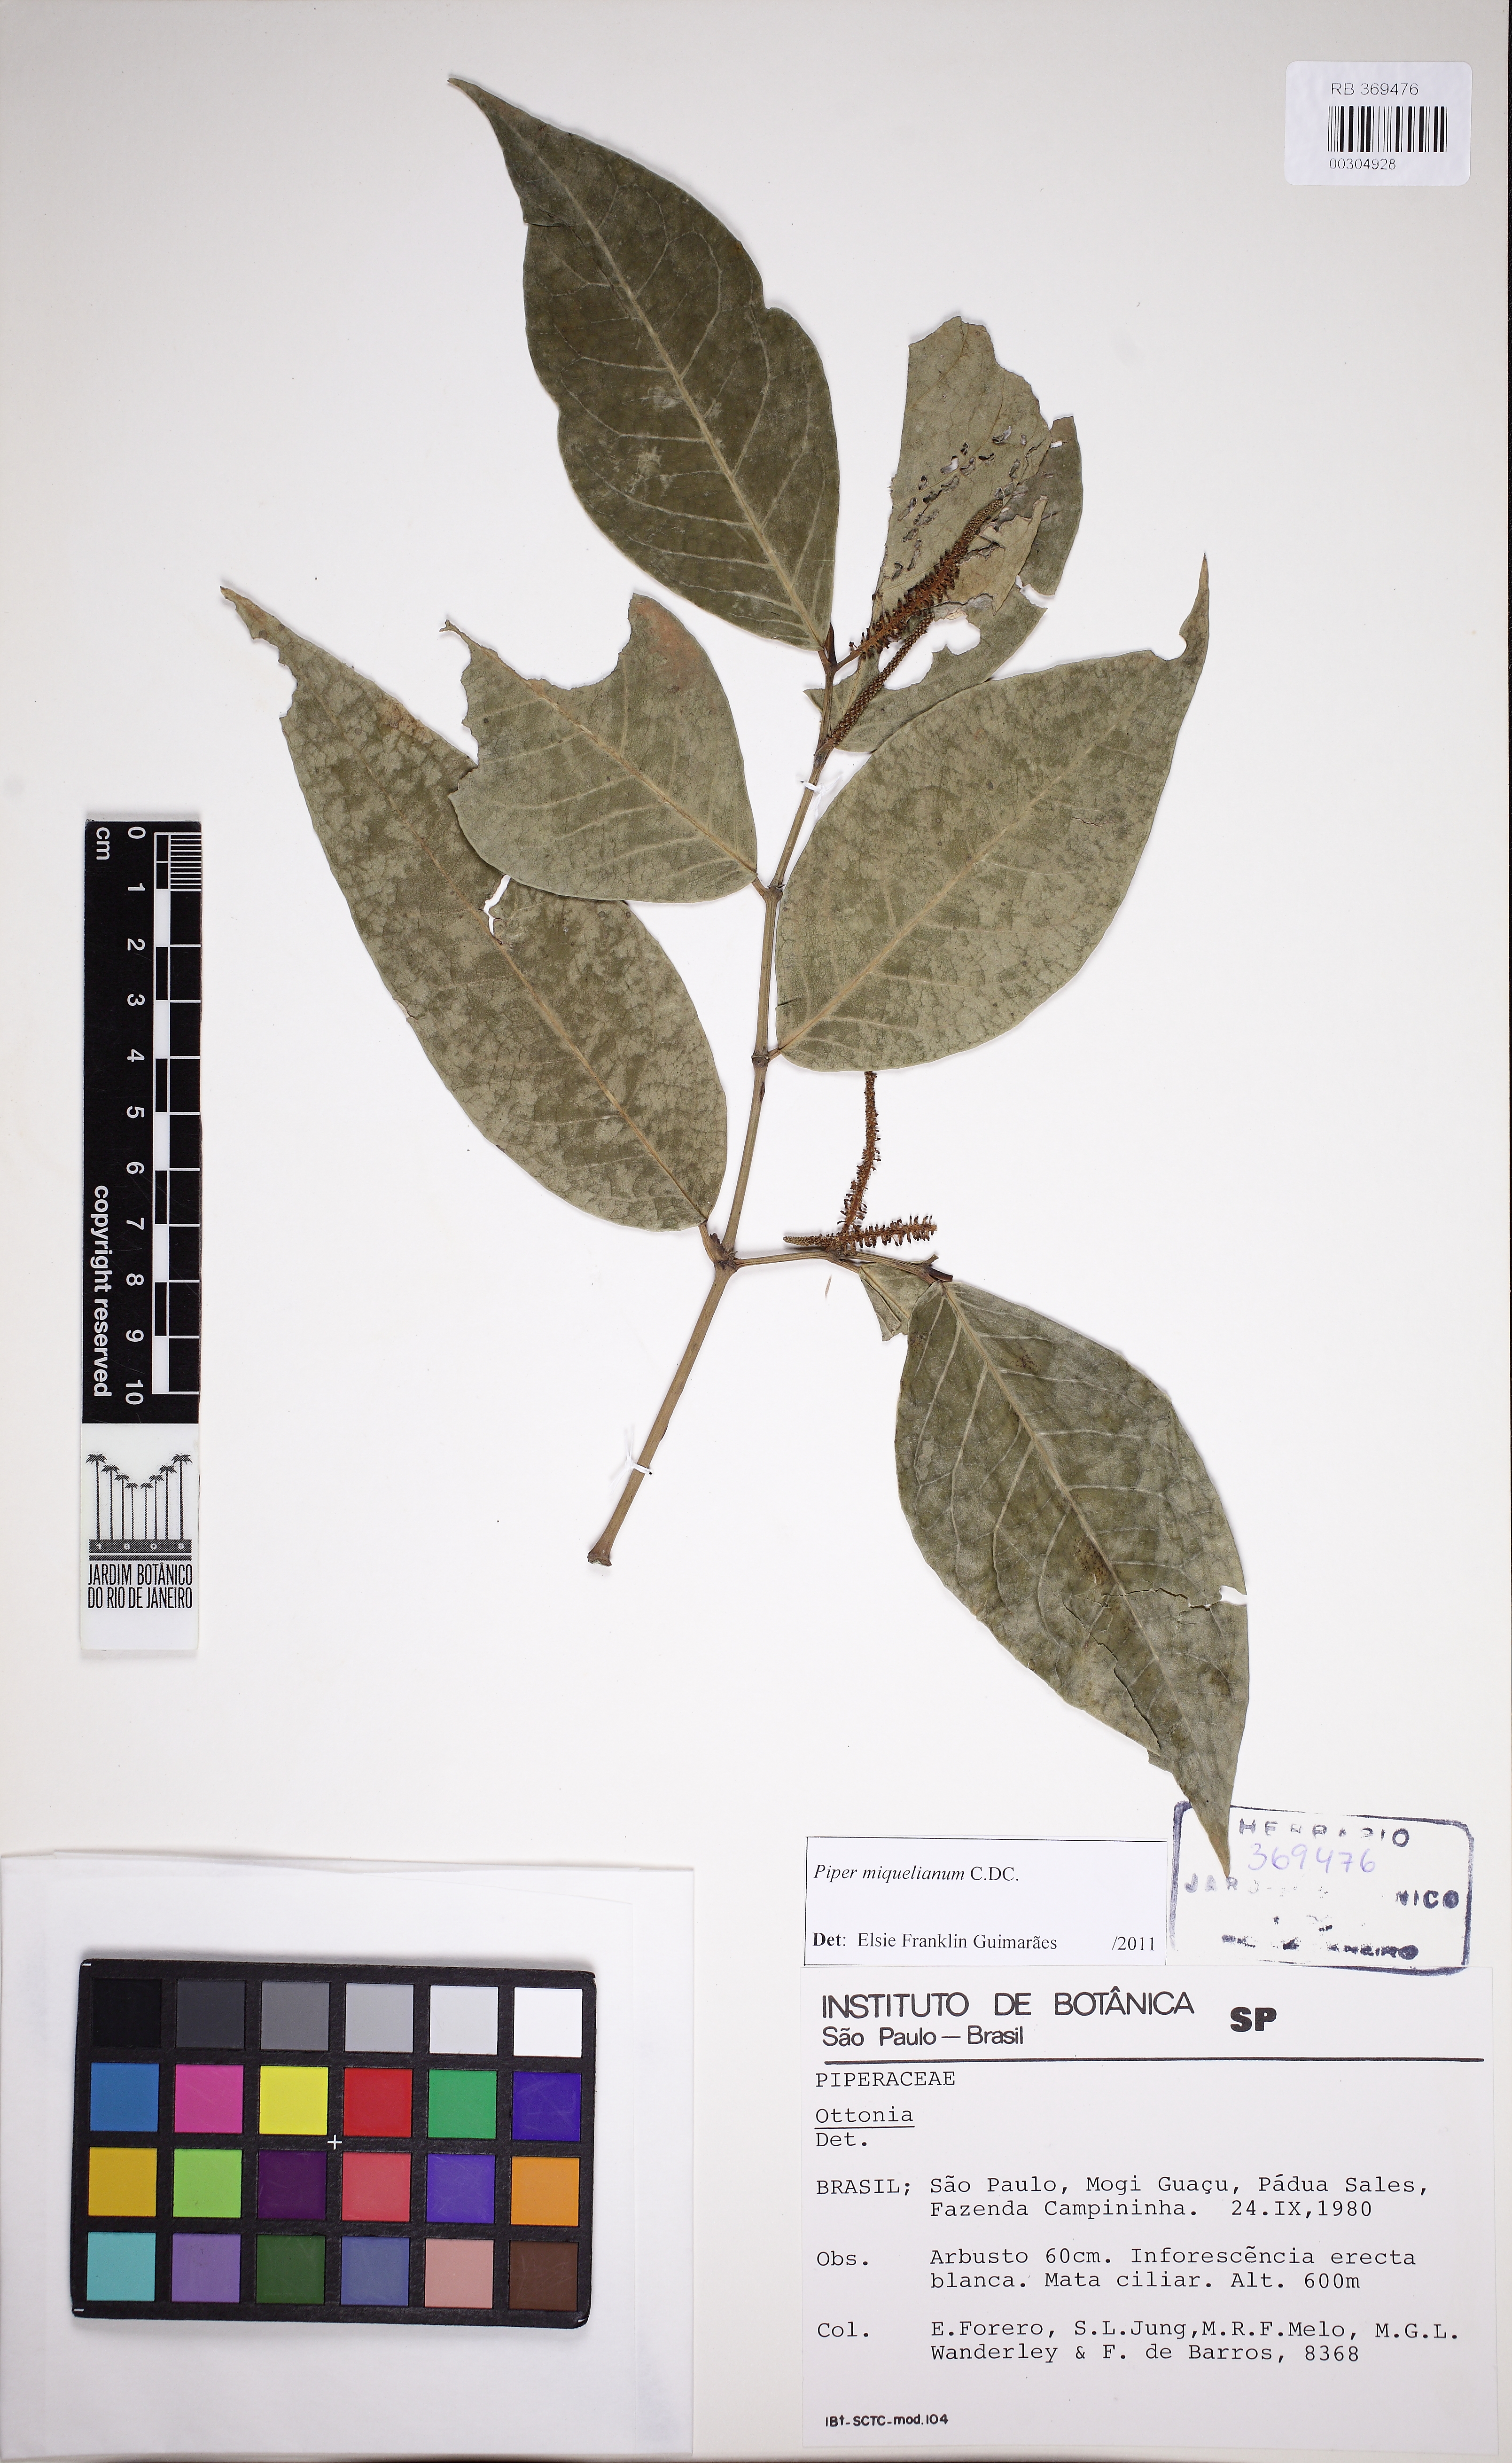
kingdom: Plantae
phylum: Tracheophyta
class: Magnoliopsida
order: Piperales
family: Piperaceae
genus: Piper
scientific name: Piper miquelianum
